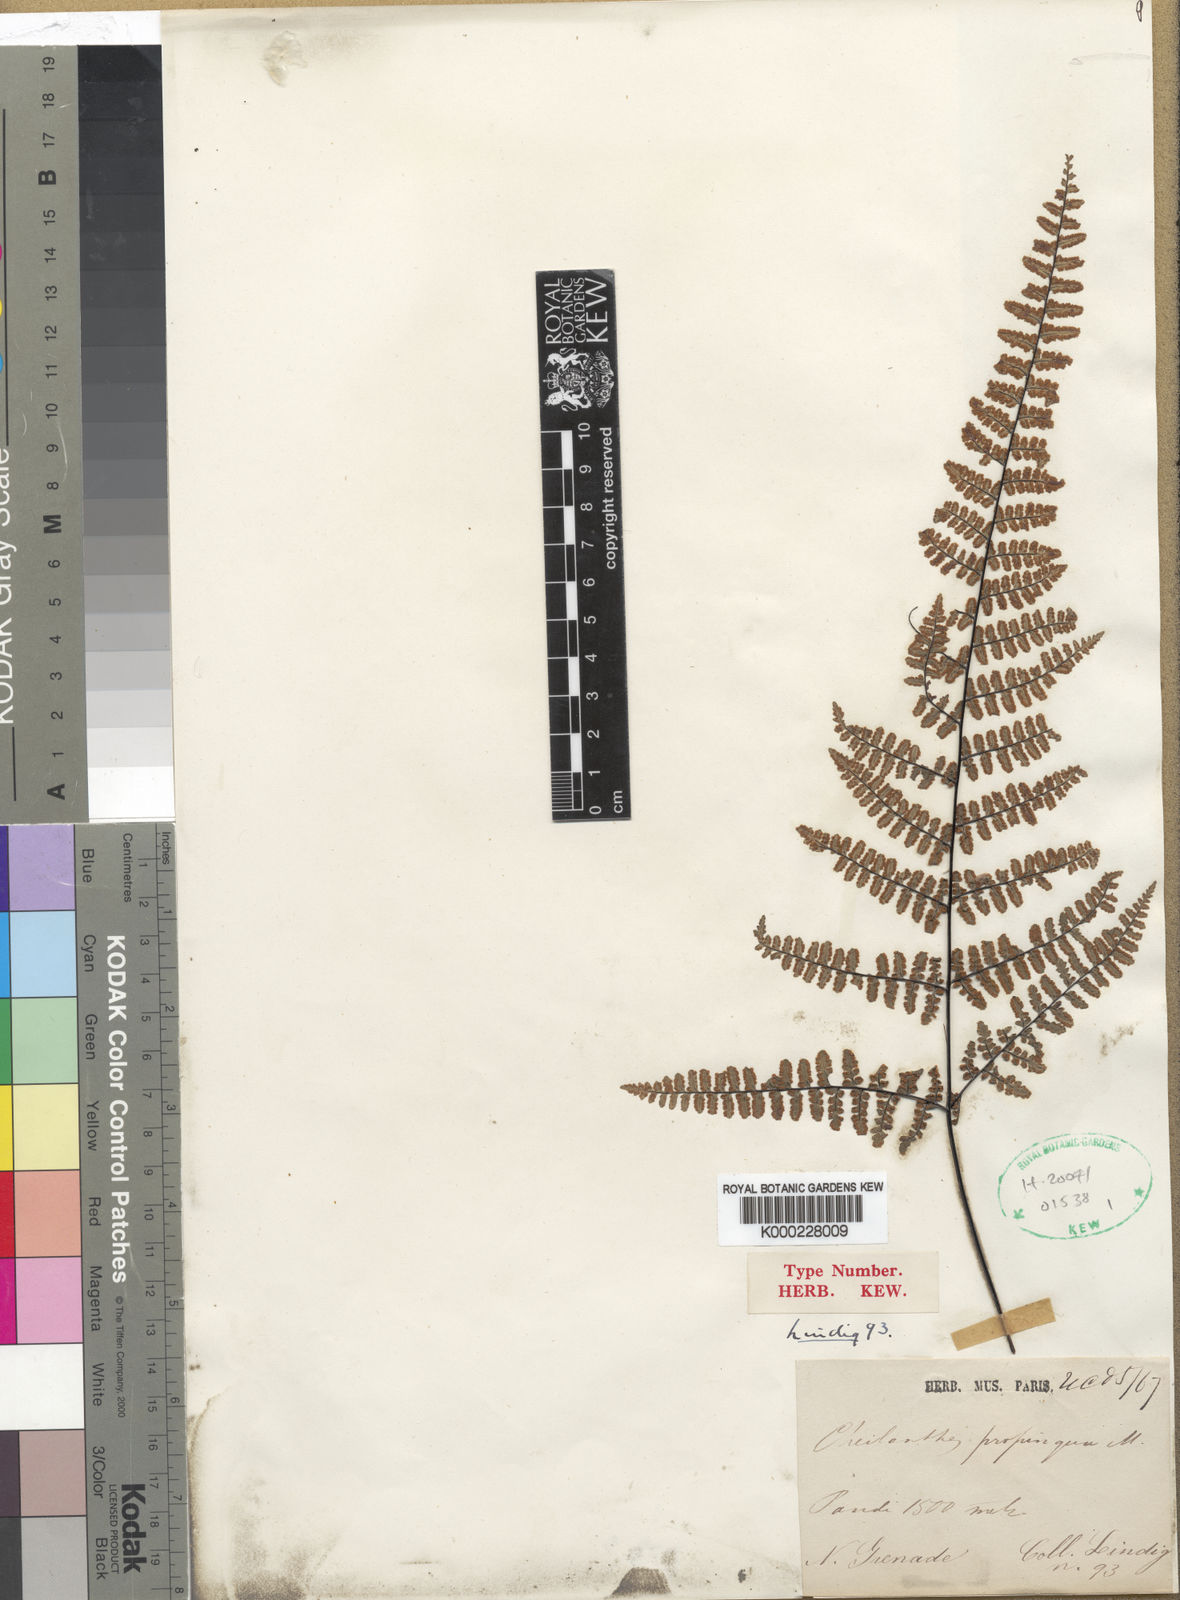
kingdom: Plantae
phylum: Tracheophyta
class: Polypodiopsida
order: Polypodiales
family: Pteridaceae
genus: Adiantopsis
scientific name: Adiantopsis propinqua
